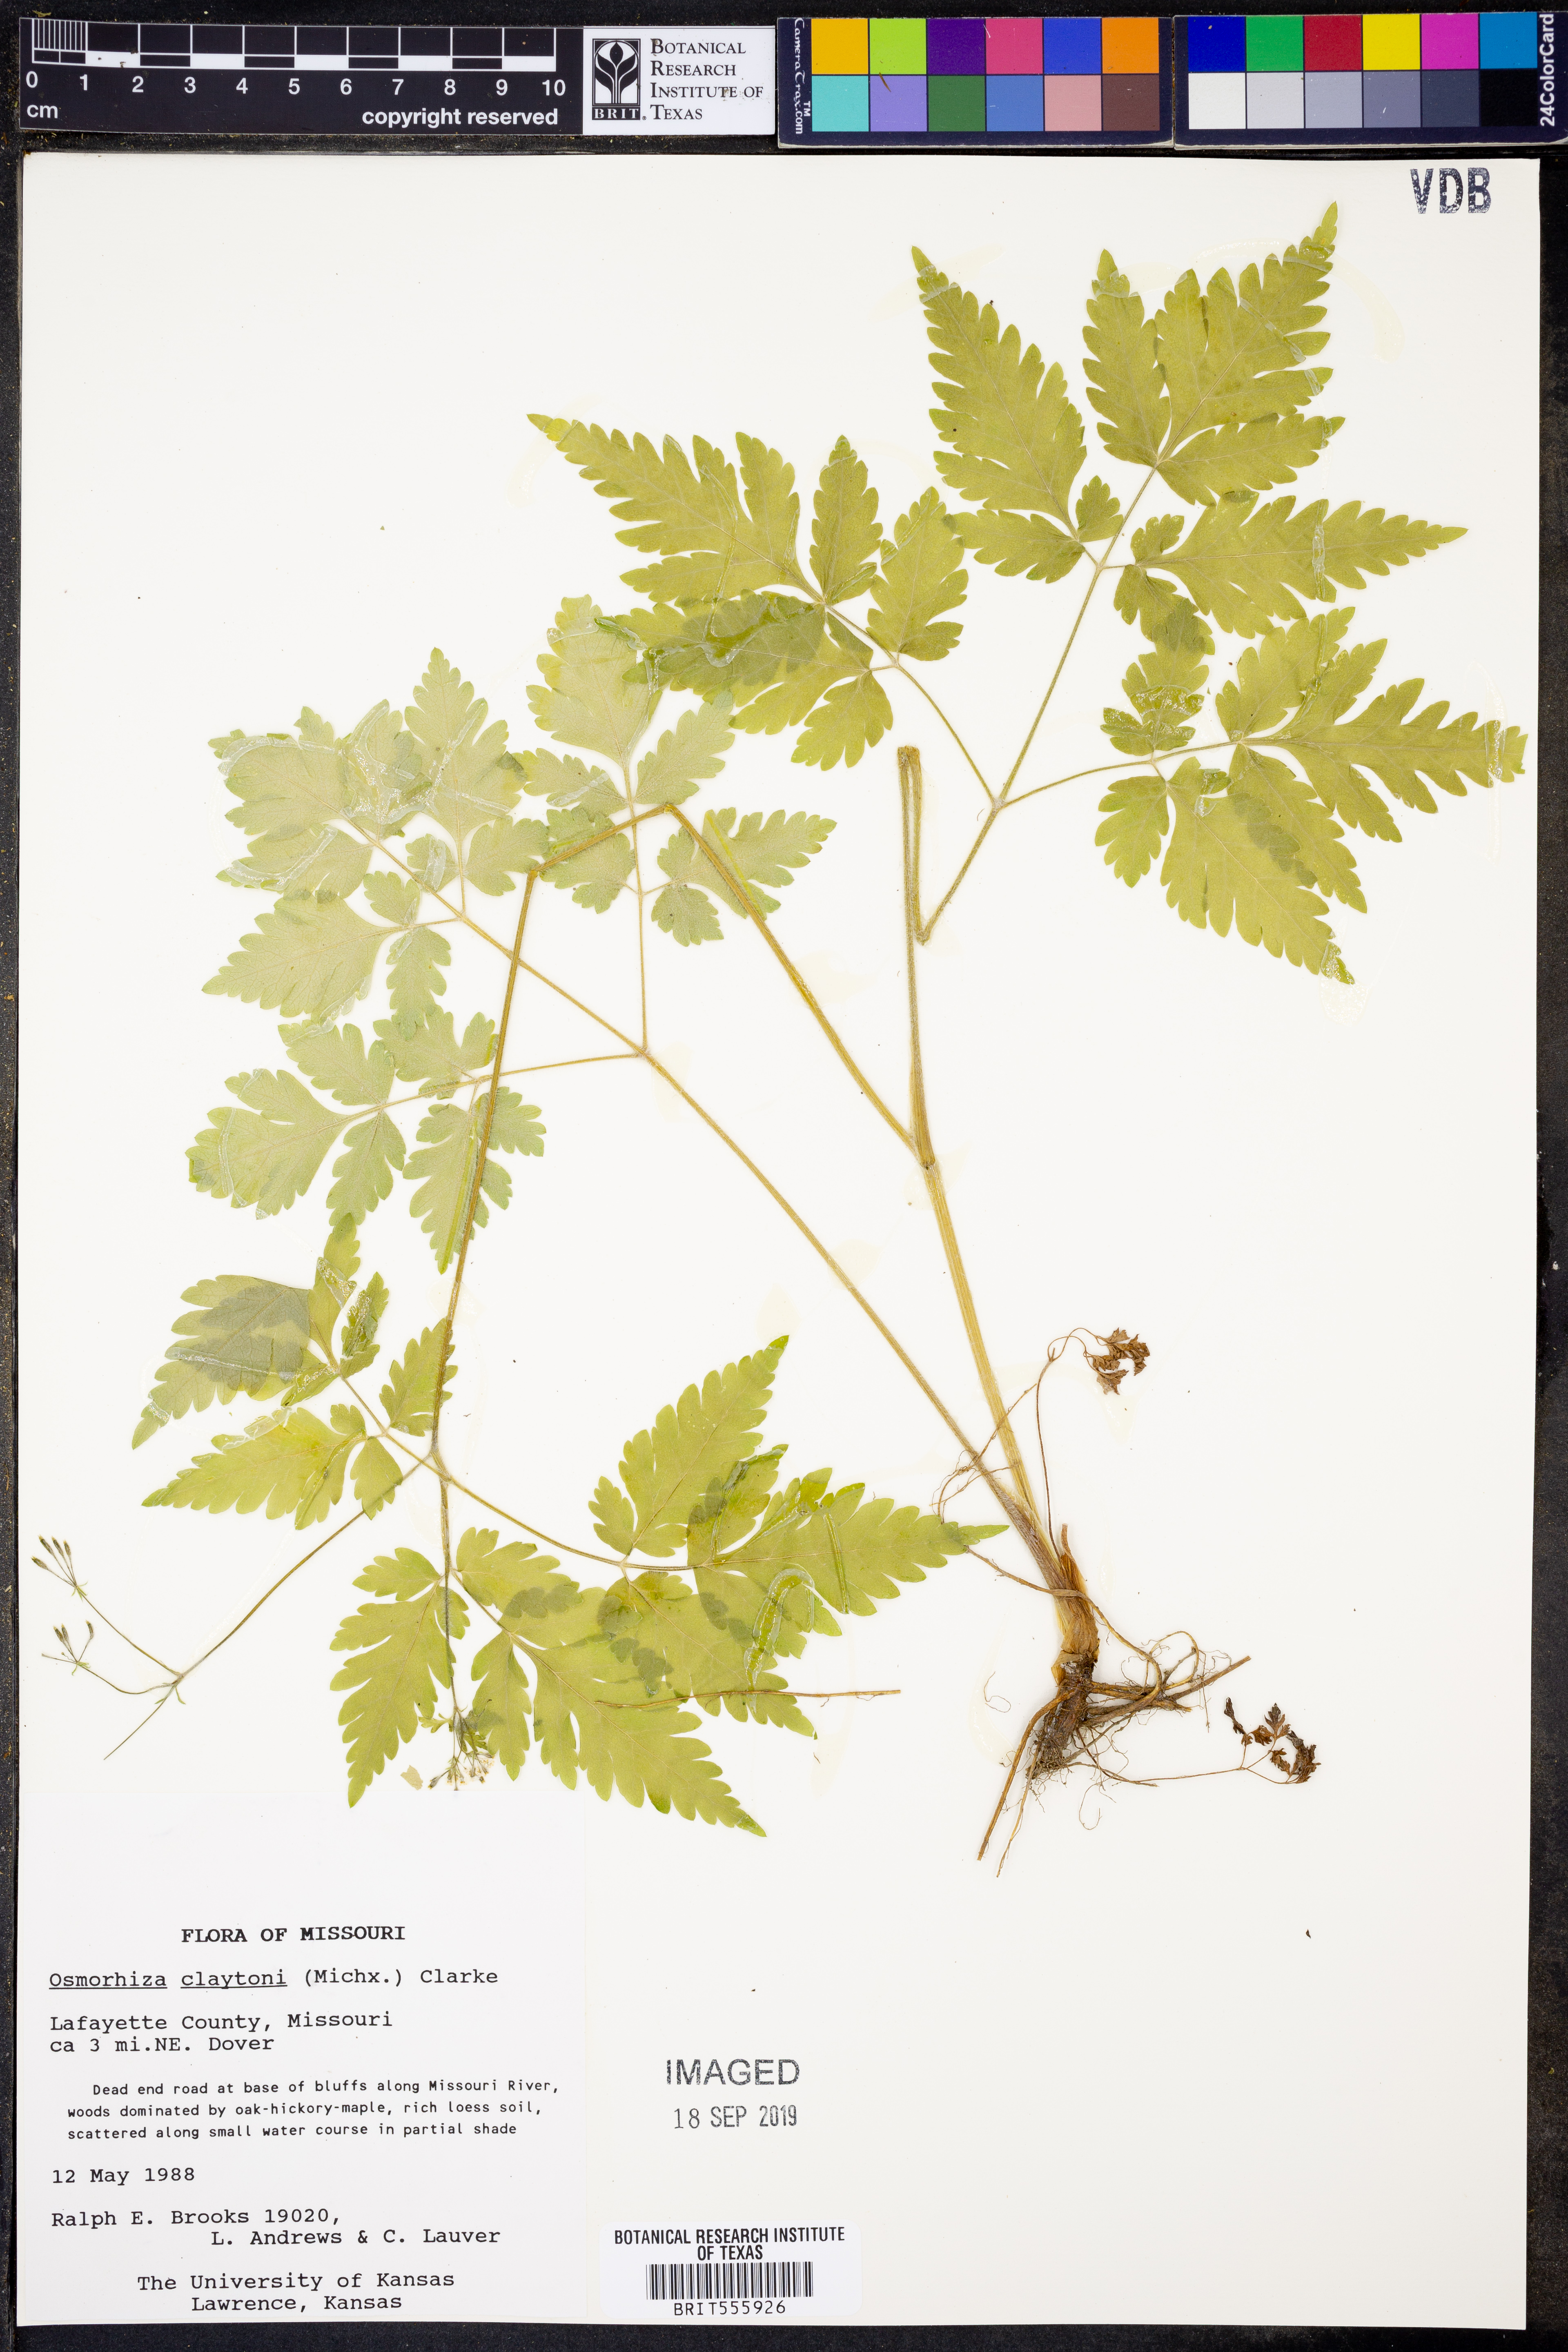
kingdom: Plantae
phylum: Tracheophyta
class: Magnoliopsida
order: Apiales
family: Apiaceae
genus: Osmorhiza
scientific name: Osmorhiza claytonii
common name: Hairy sweet cicely
